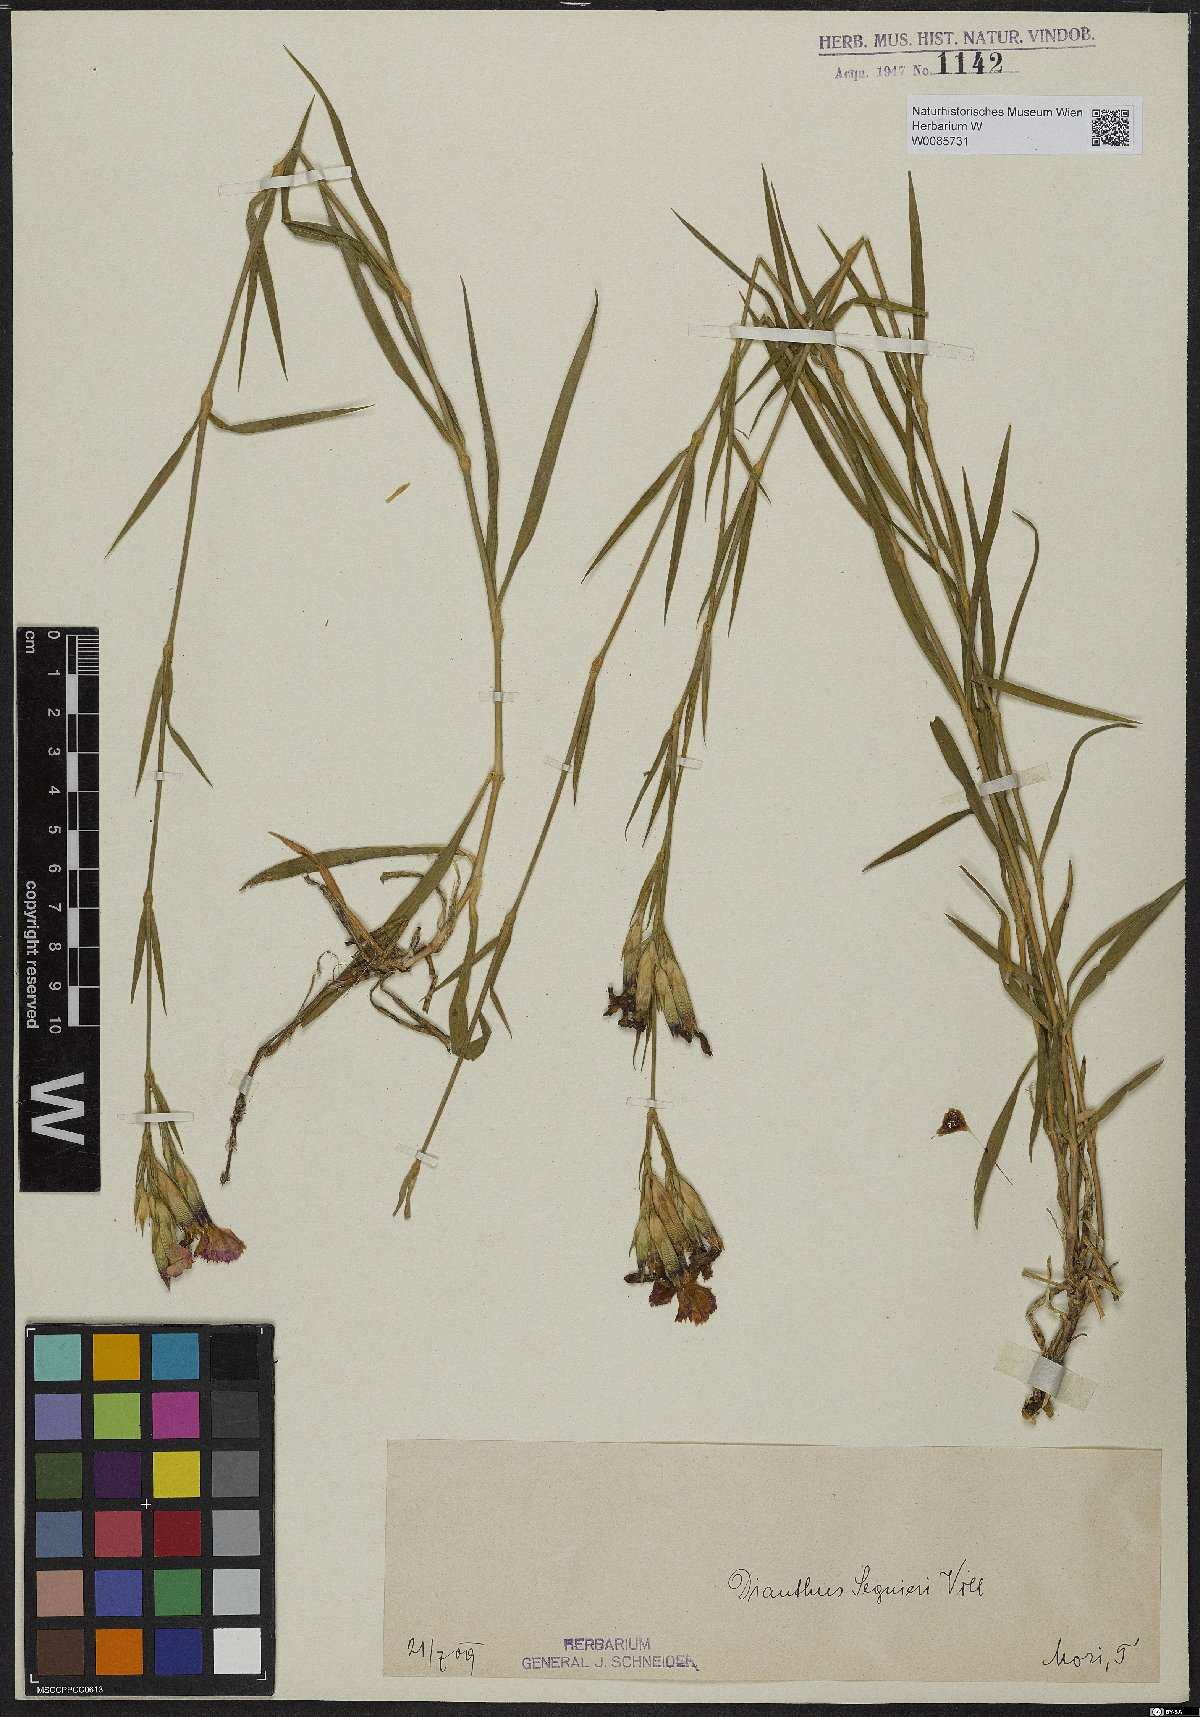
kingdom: Plantae
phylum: Tracheophyta
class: Magnoliopsida
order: Caryophyllales
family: Caryophyllaceae
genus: Dianthus
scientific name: Dianthus seguieri
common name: Ragged pink
